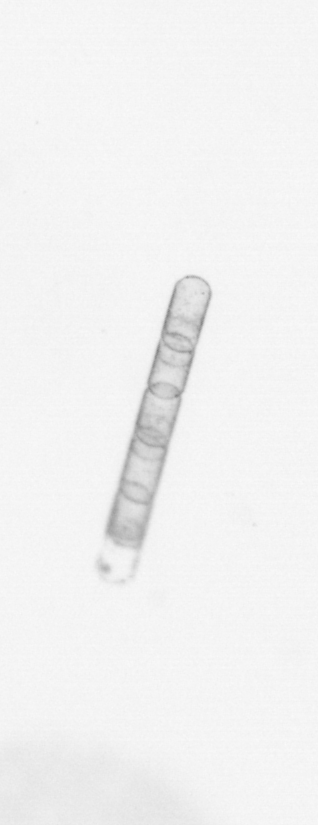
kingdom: Chromista
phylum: Ochrophyta
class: Bacillariophyceae
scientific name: Bacillariophyceae
